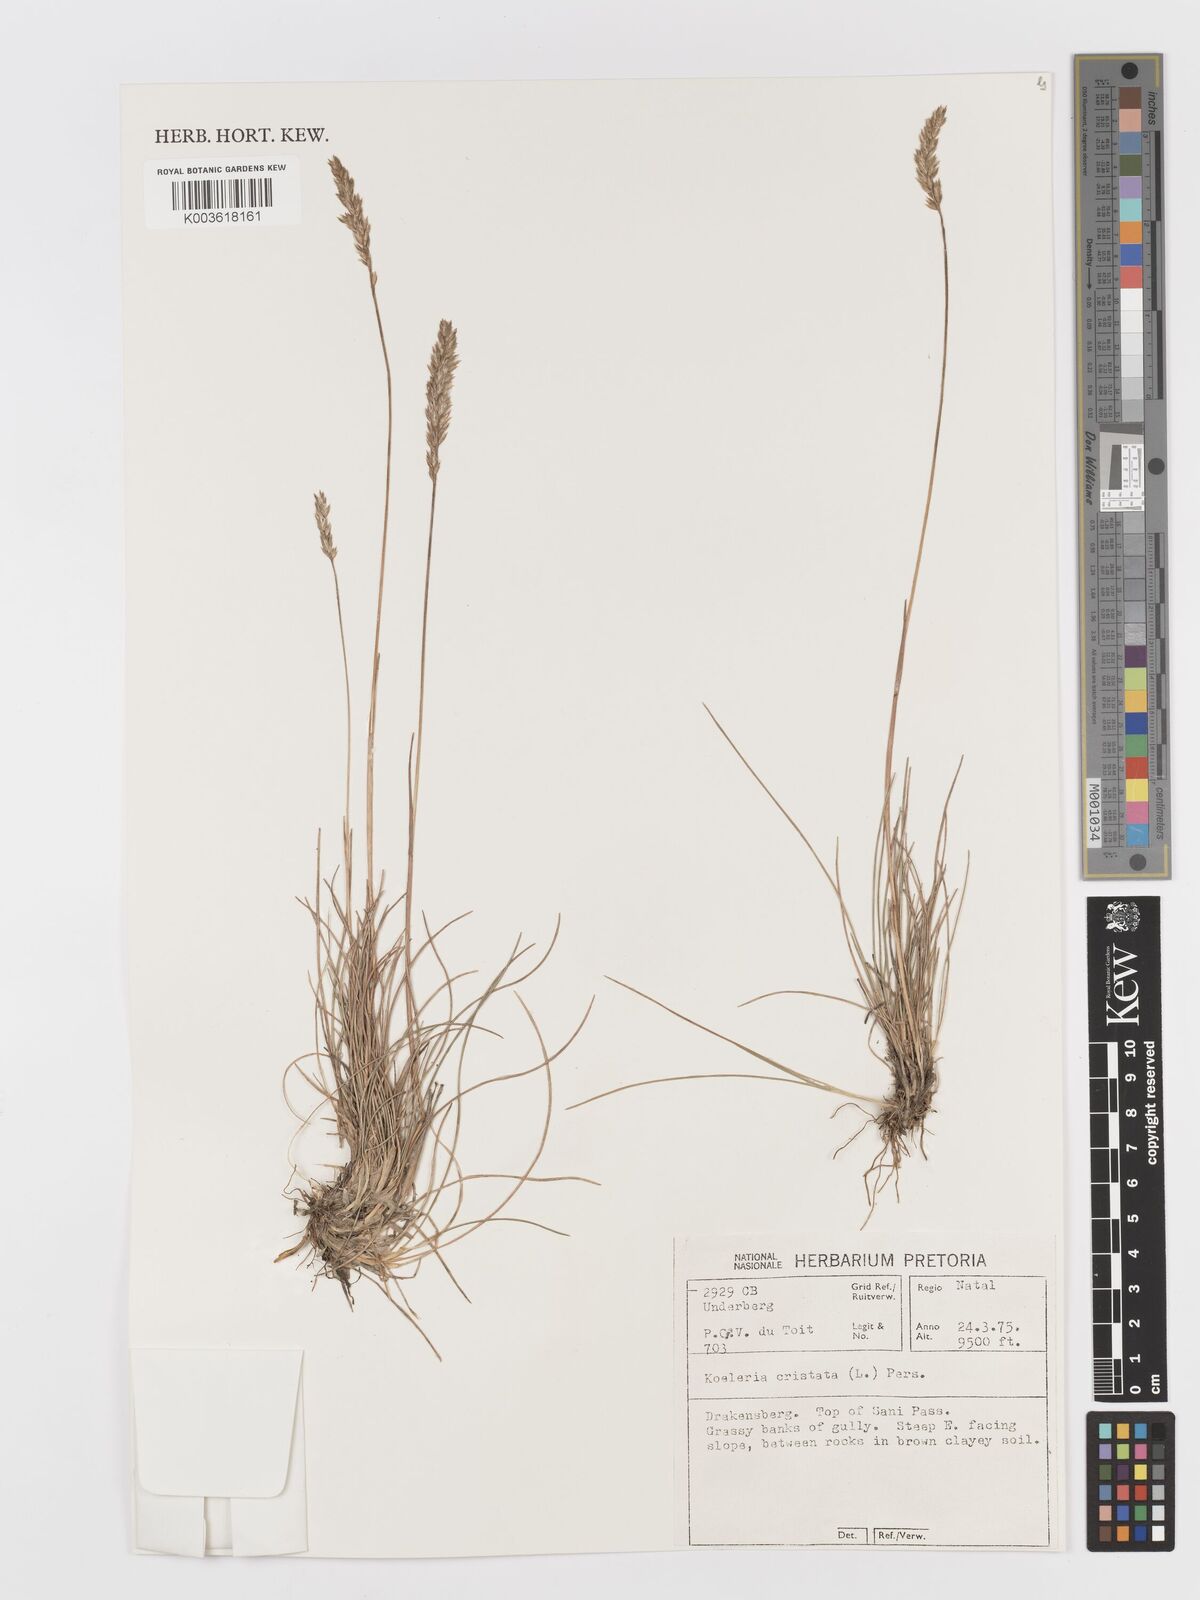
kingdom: Plantae
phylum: Tracheophyta
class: Liliopsida
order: Poales
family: Poaceae
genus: Koeleria
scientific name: Koeleria capensis
